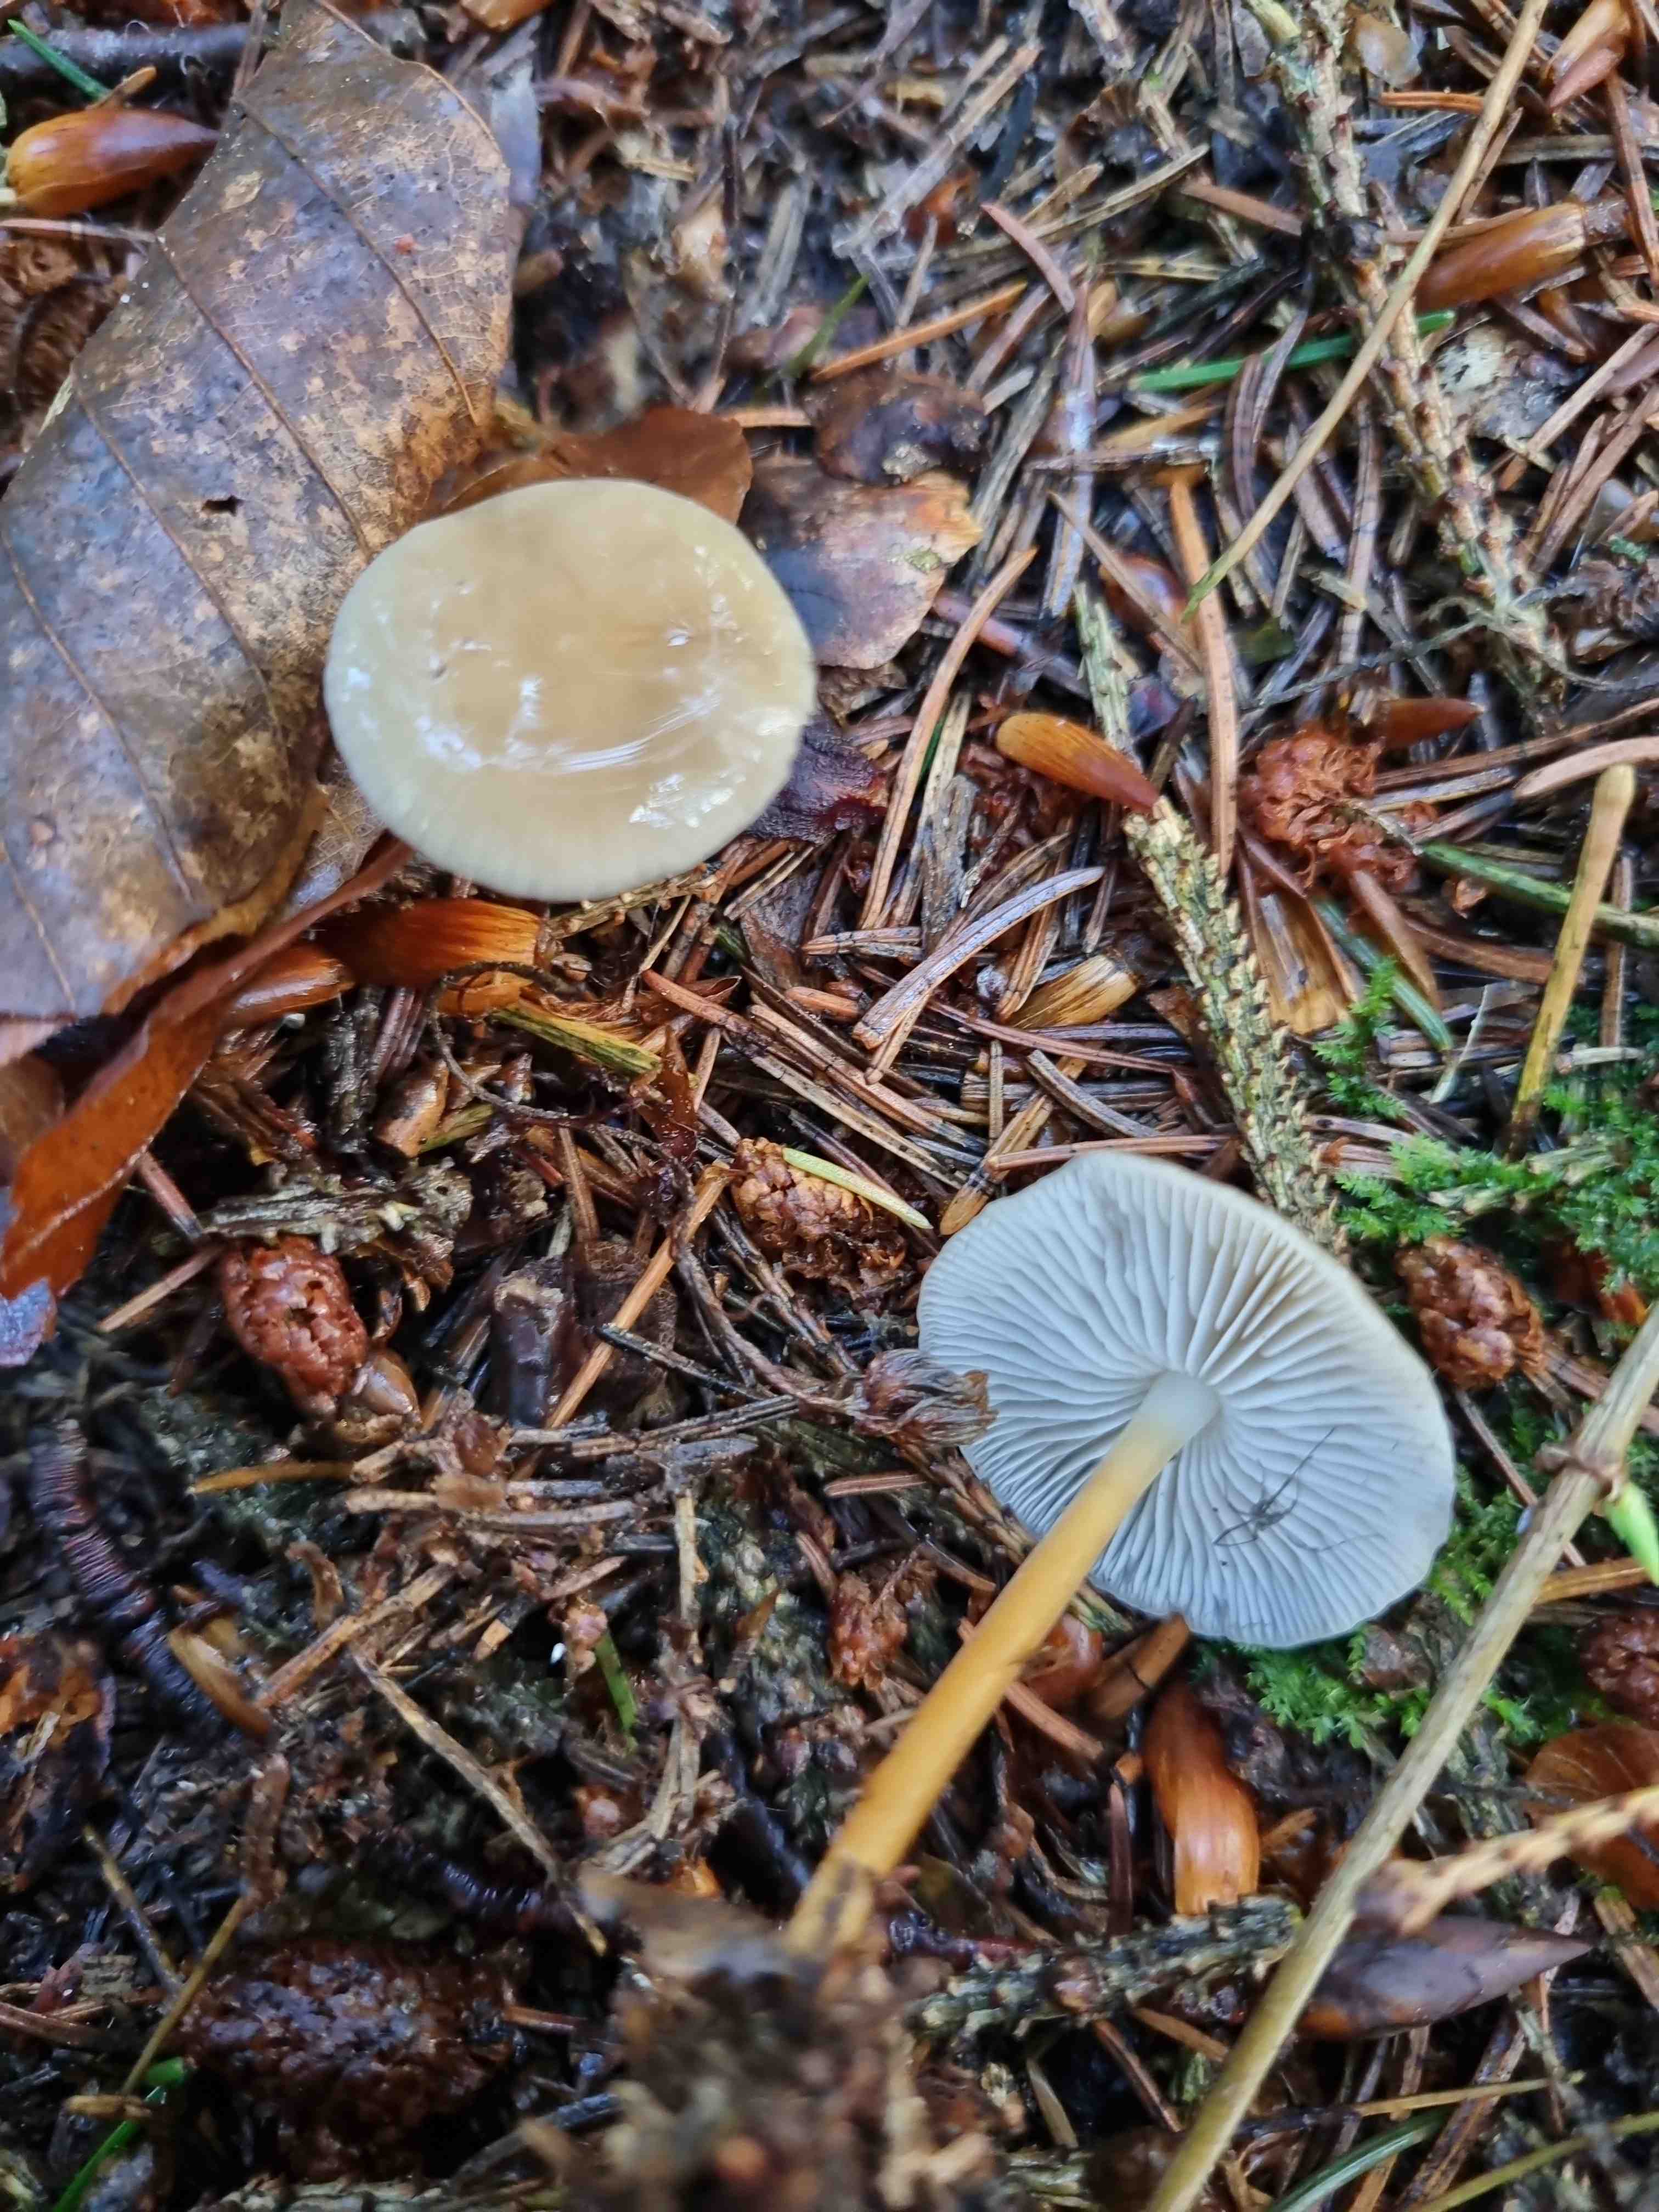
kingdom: Fungi
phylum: Basidiomycota
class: Agaricomycetes
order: Agaricales
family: Physalacriaceae
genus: Strobilurus
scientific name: Strobilurus esculentus
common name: gran-koglehat
